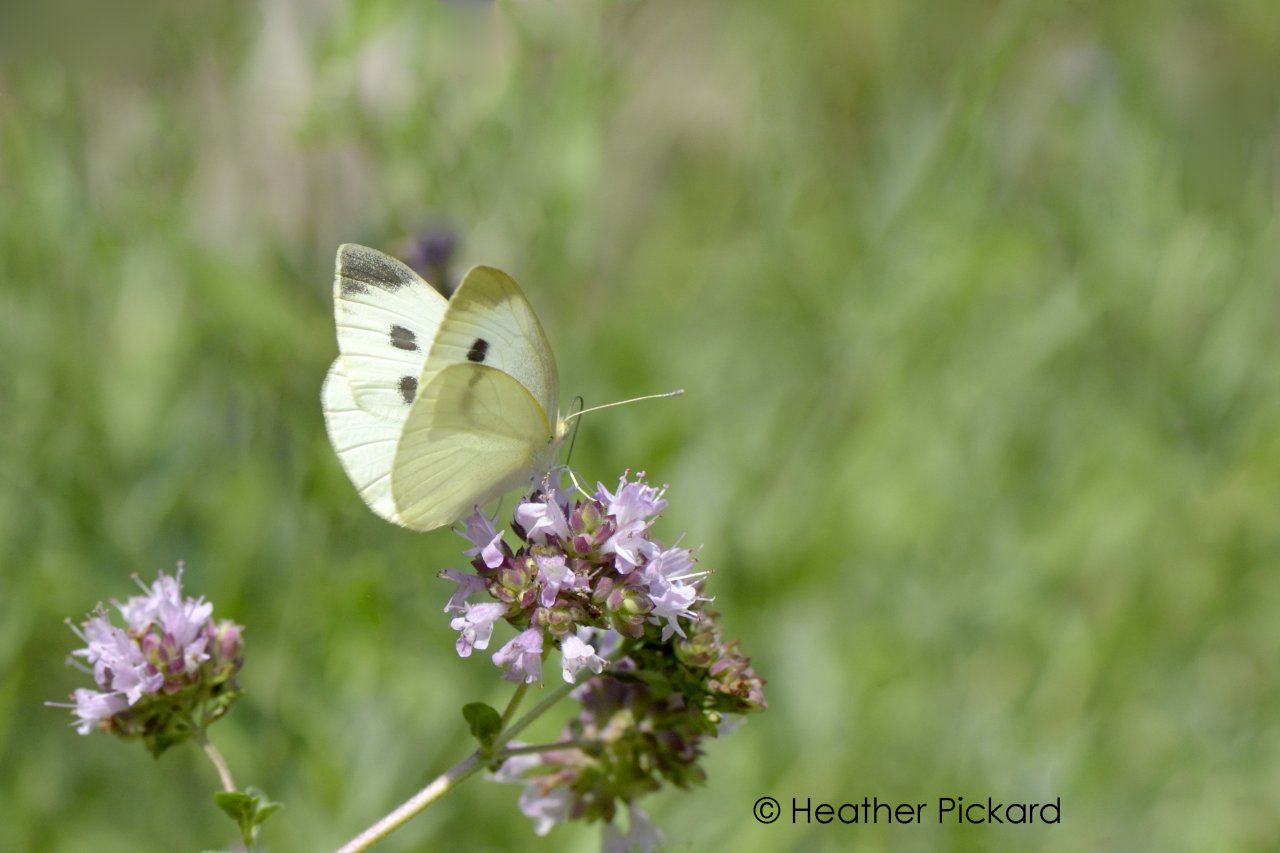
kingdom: Animalia
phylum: Arthropoda
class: Insecta
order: Lepidoptera
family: Pieridae
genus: Pieris
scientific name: Pieris rapae
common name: Cabbage White
